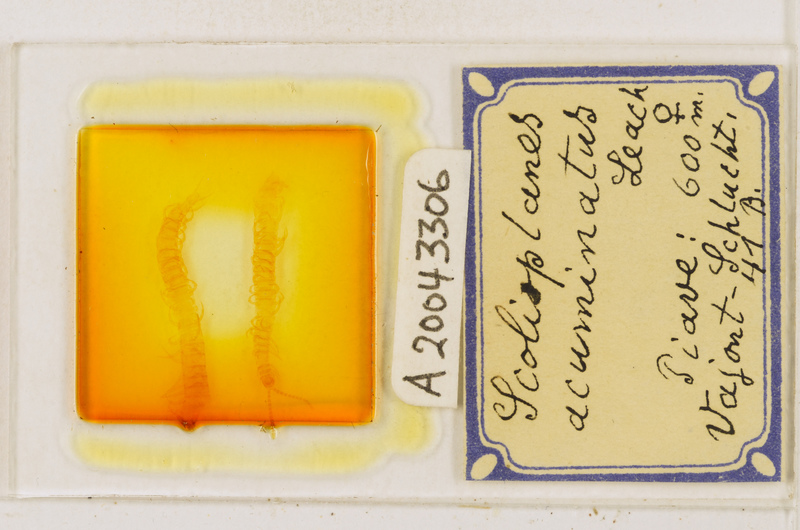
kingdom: Animalia
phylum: Arthropoda
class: Chilopoda
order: Geophilomorpha
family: Linotaeniidae
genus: Strigamia
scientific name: Strigamia acuminata
